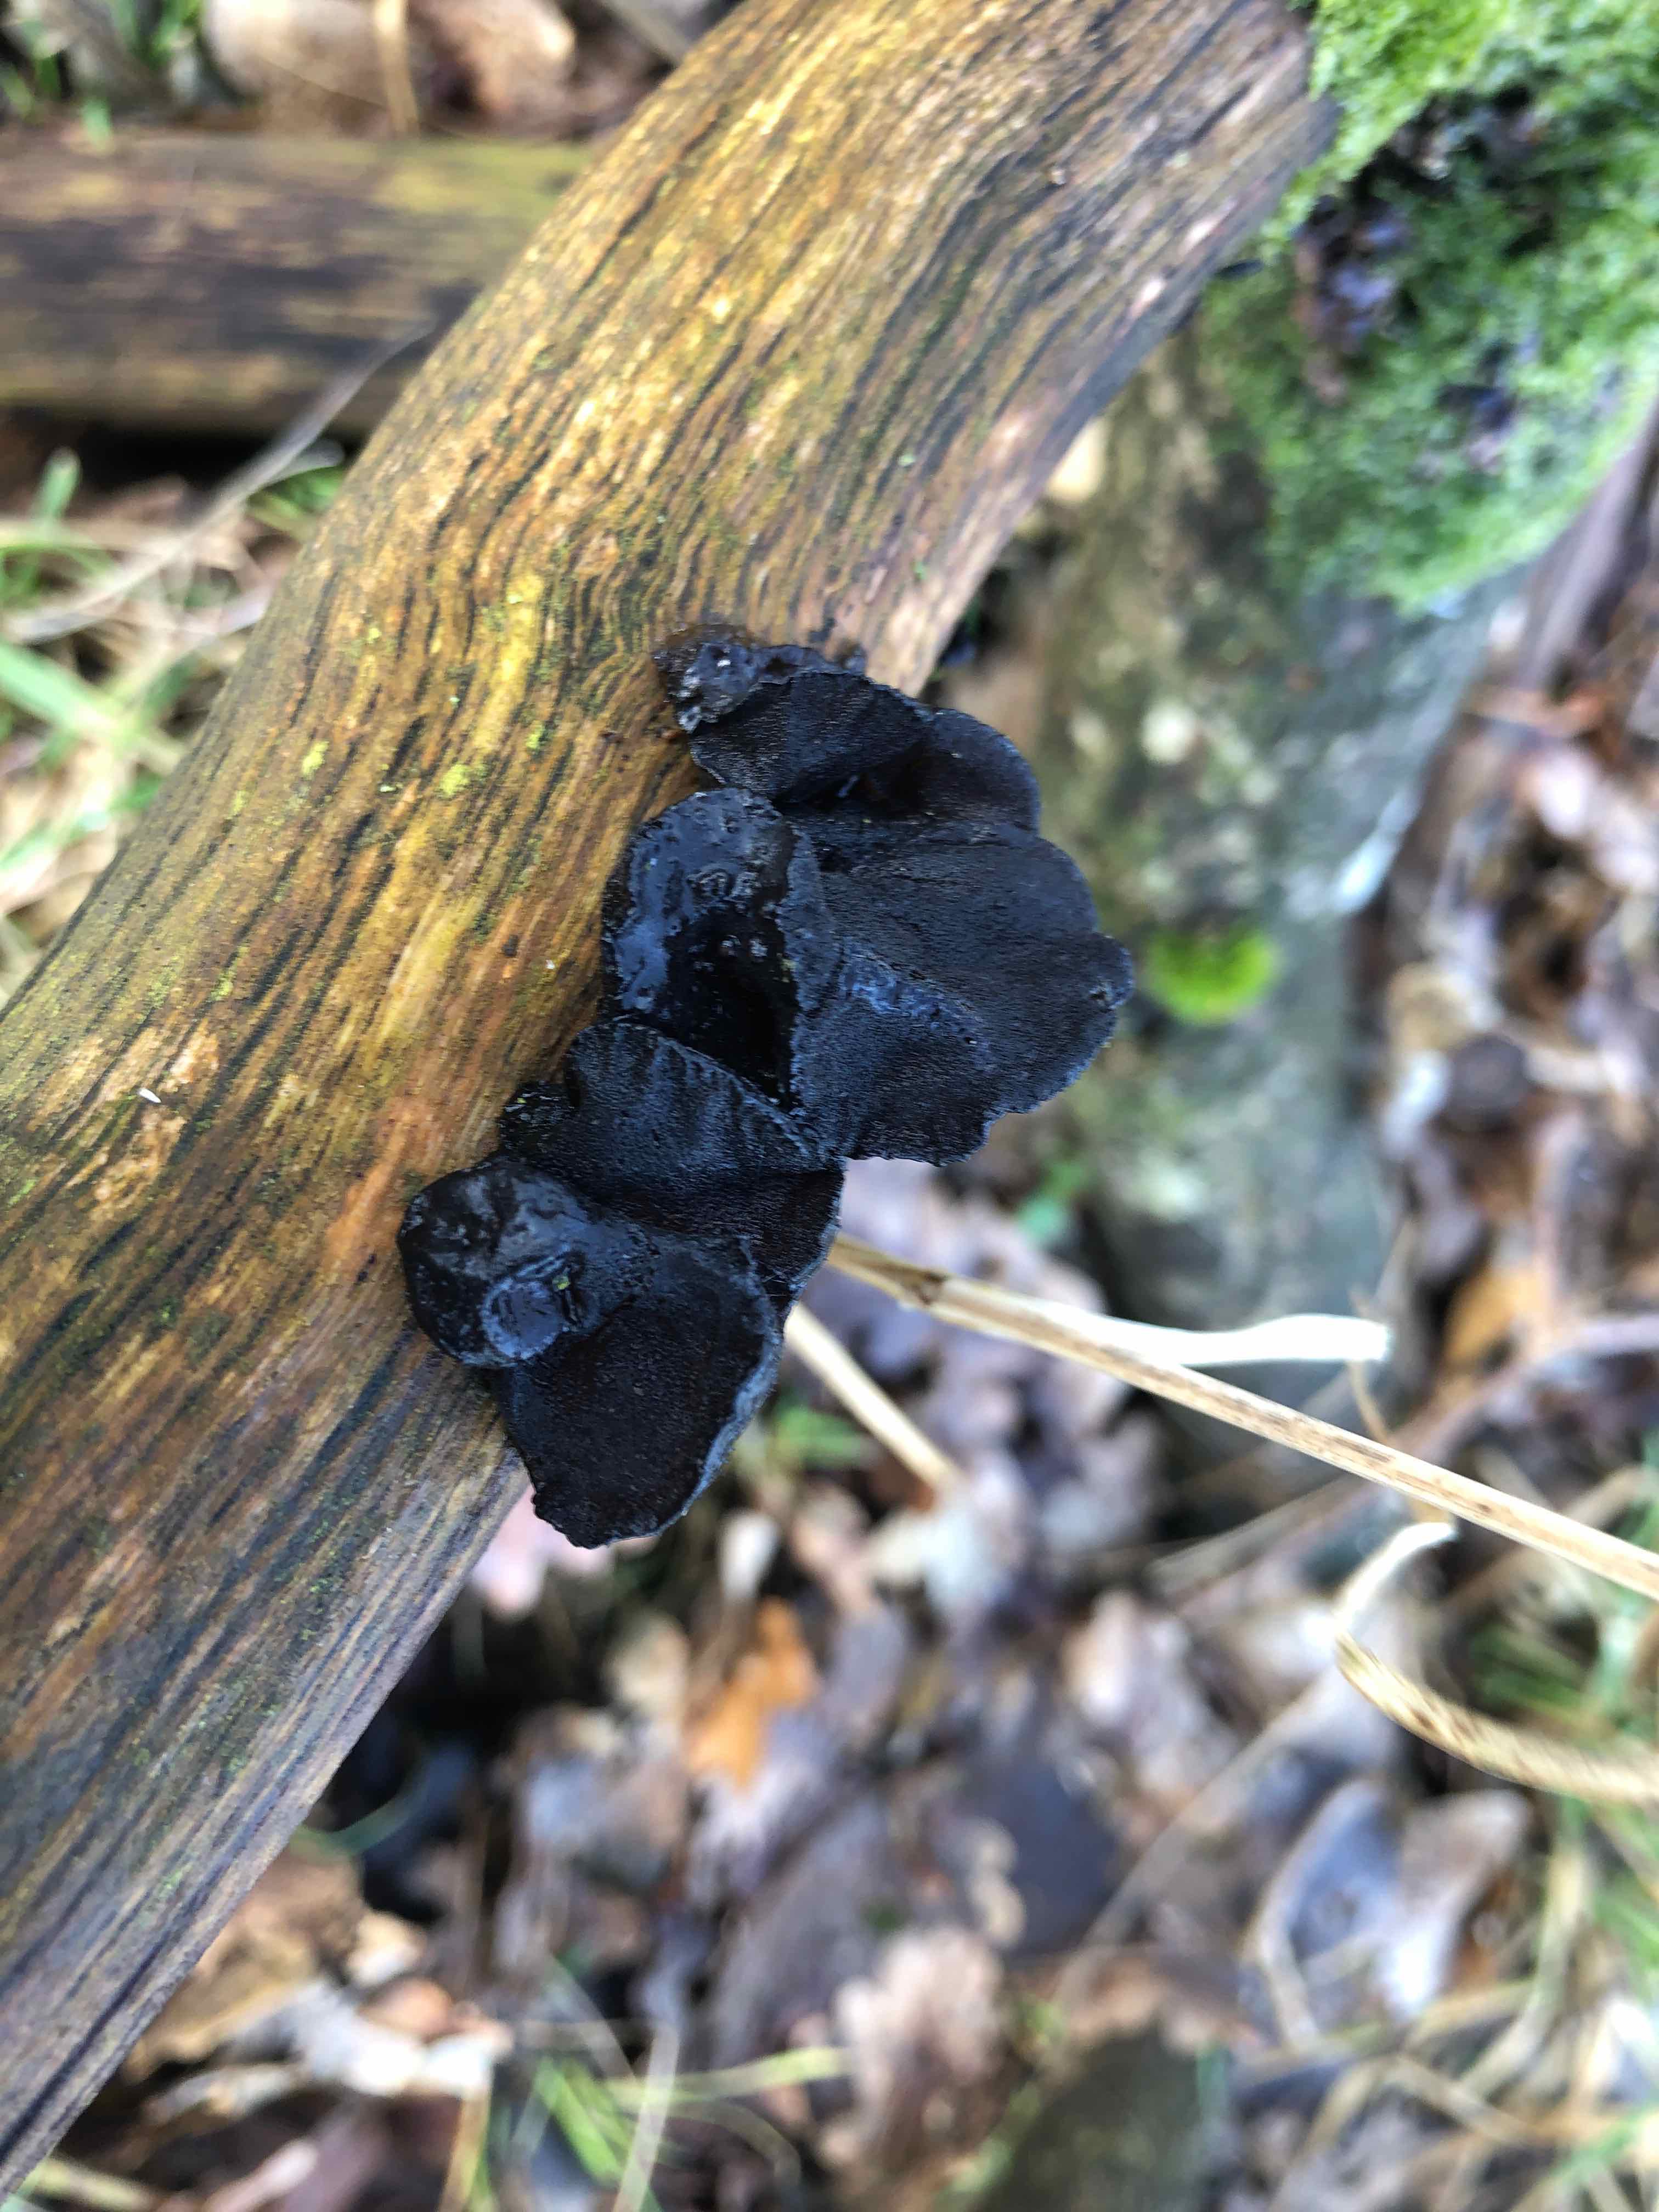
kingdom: Fungi
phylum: Basidiomycota
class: Agaricomycetes
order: Auriculariales
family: Auriculariaceae
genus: Exidia
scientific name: Exidia glandulosa
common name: ege-bævretop
